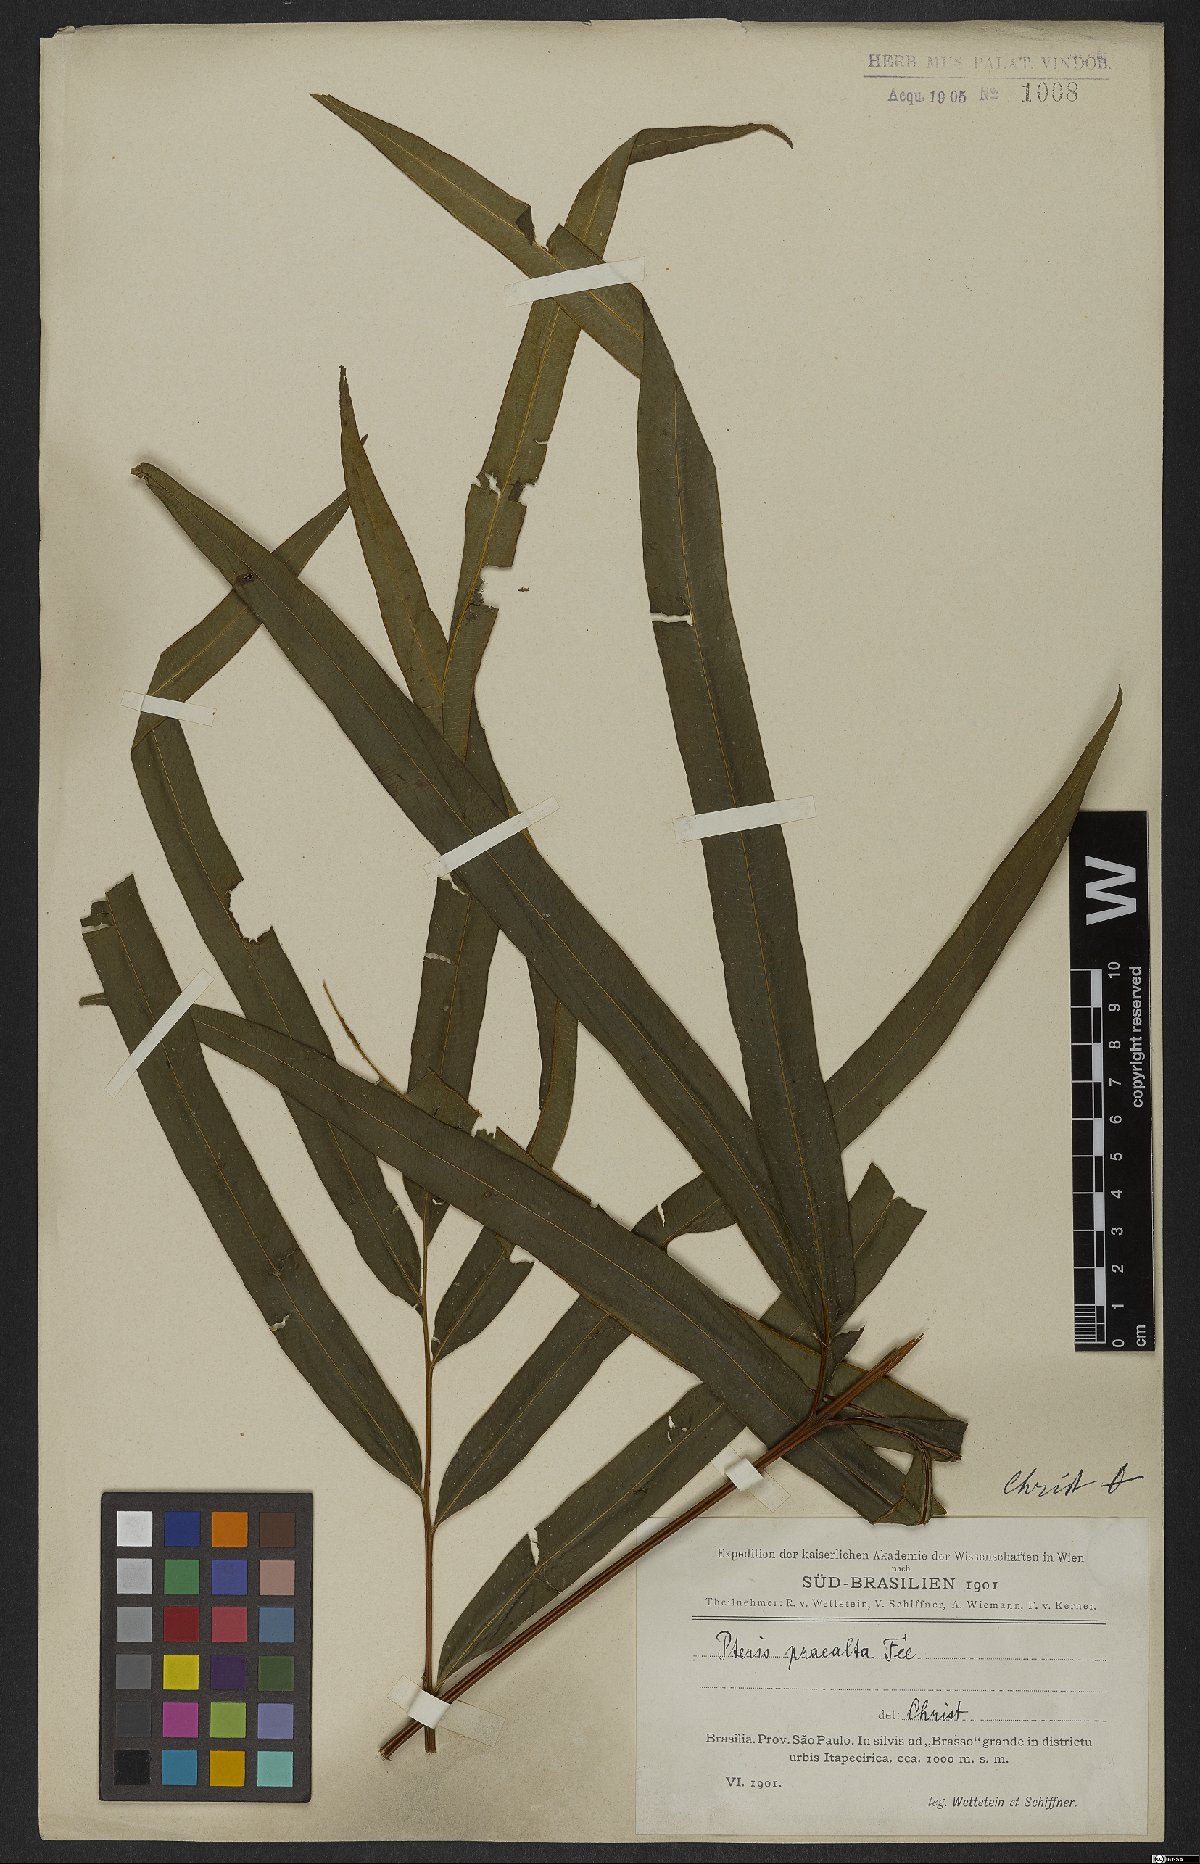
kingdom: Plantae
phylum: Tracheophyta
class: Polypodiopsida
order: Polypodiales
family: Pteridaceae
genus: Pteris
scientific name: Pteris praealta
